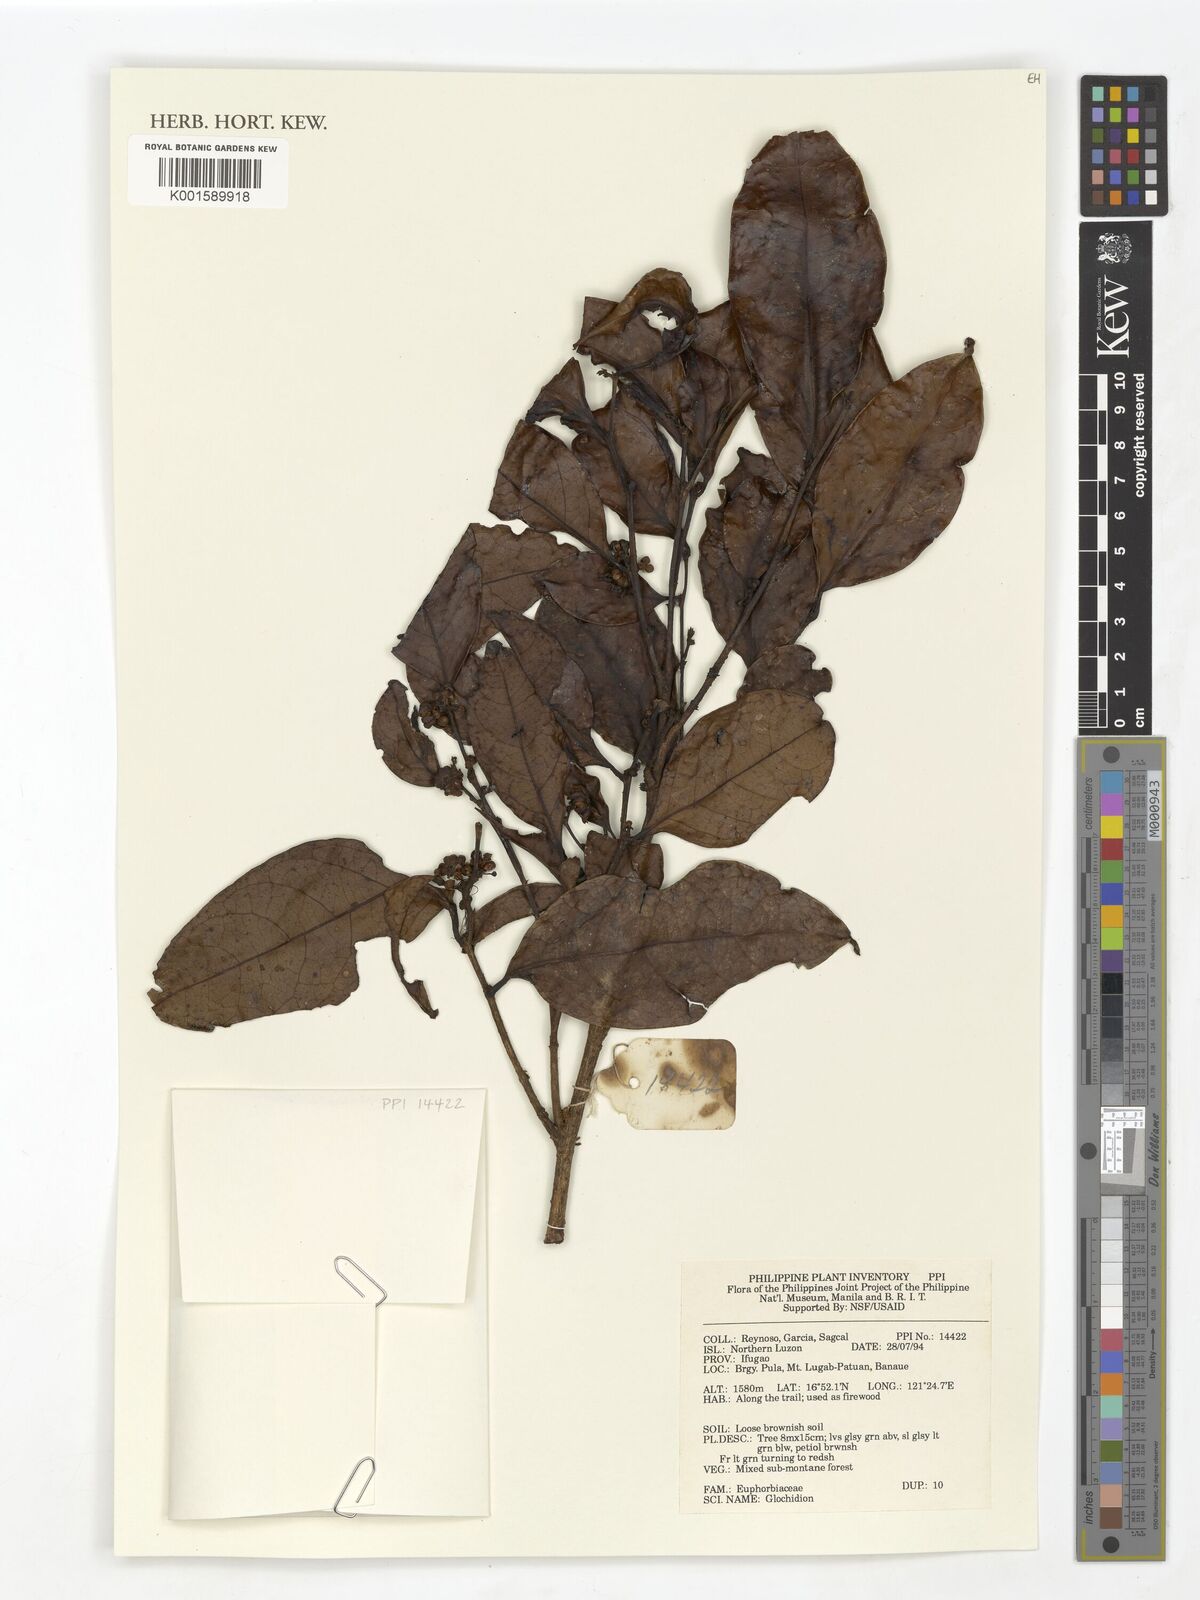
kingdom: Plantae
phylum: Tracheophyta
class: Magnoliopsida
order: Malpighiales
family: Phyllanthaceae
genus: Glochidion
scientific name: Glochidion
